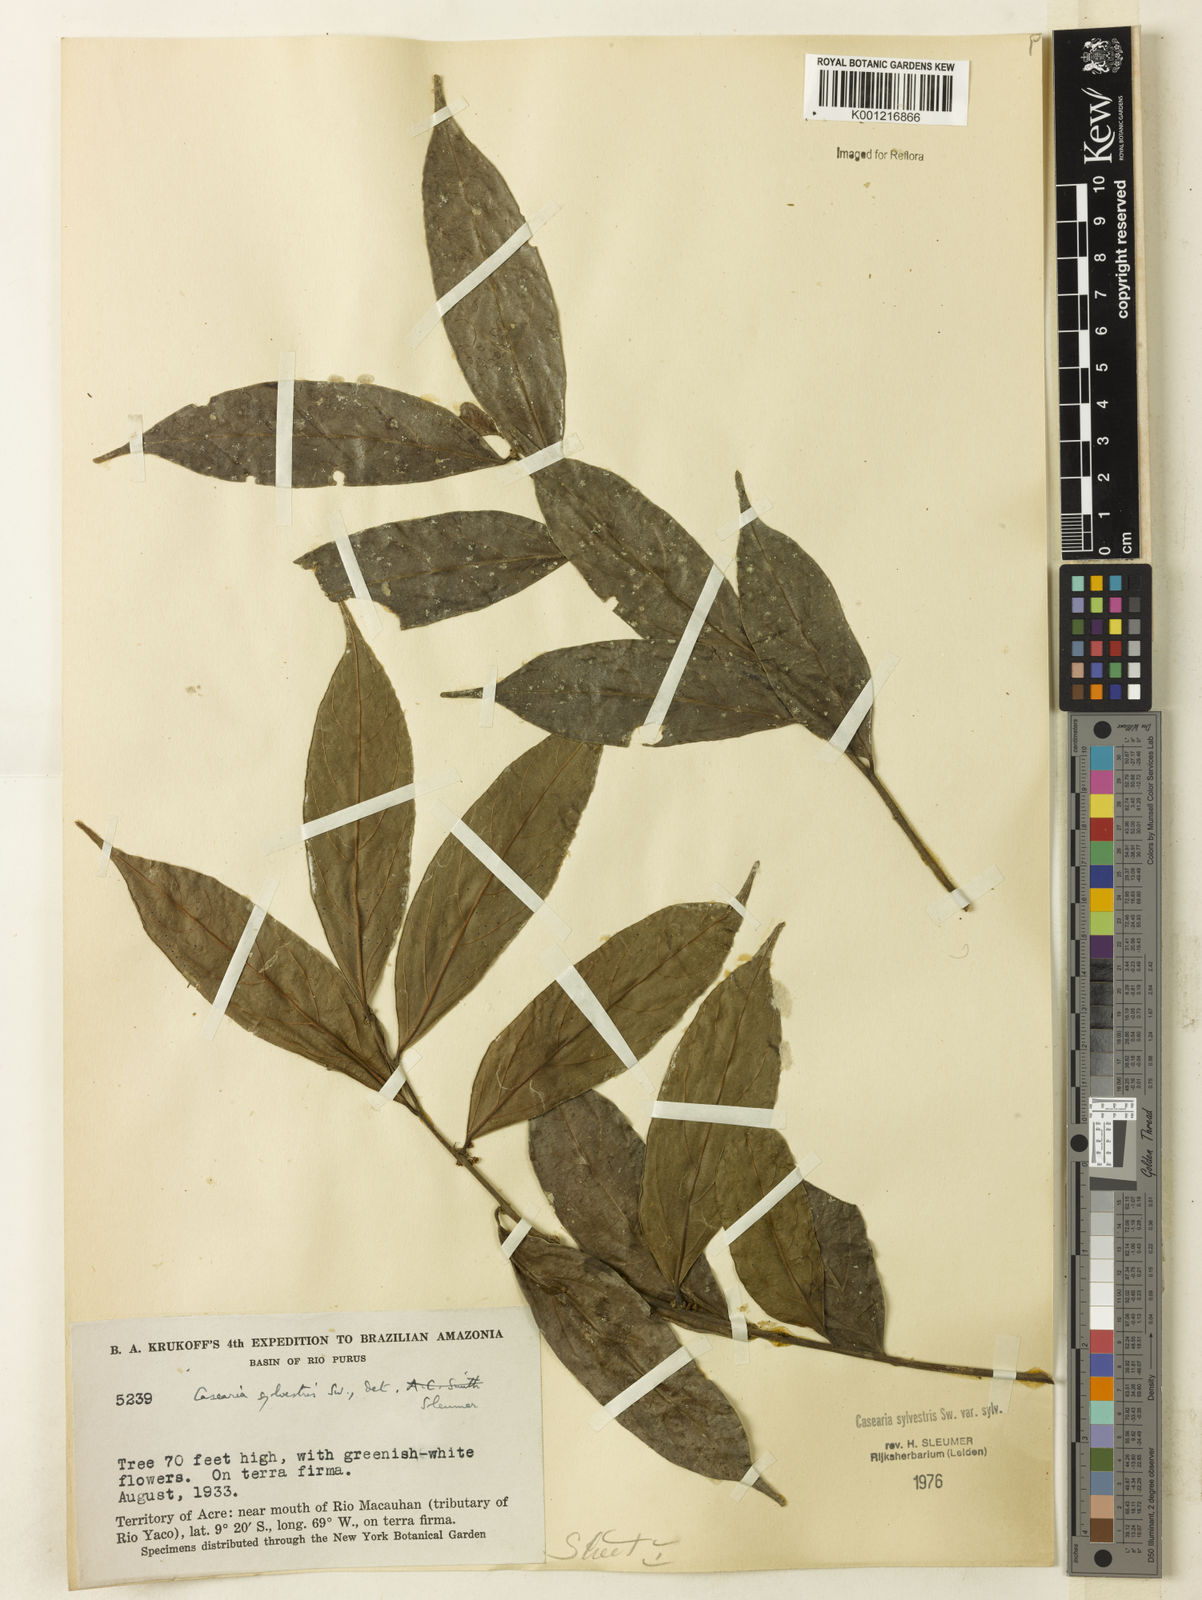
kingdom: Plantae
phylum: Tracheophyta
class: Magnoliopsida
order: Malpighiales
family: Salicaceae
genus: Casearia
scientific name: Casearia sylvestris
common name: Wild sage
